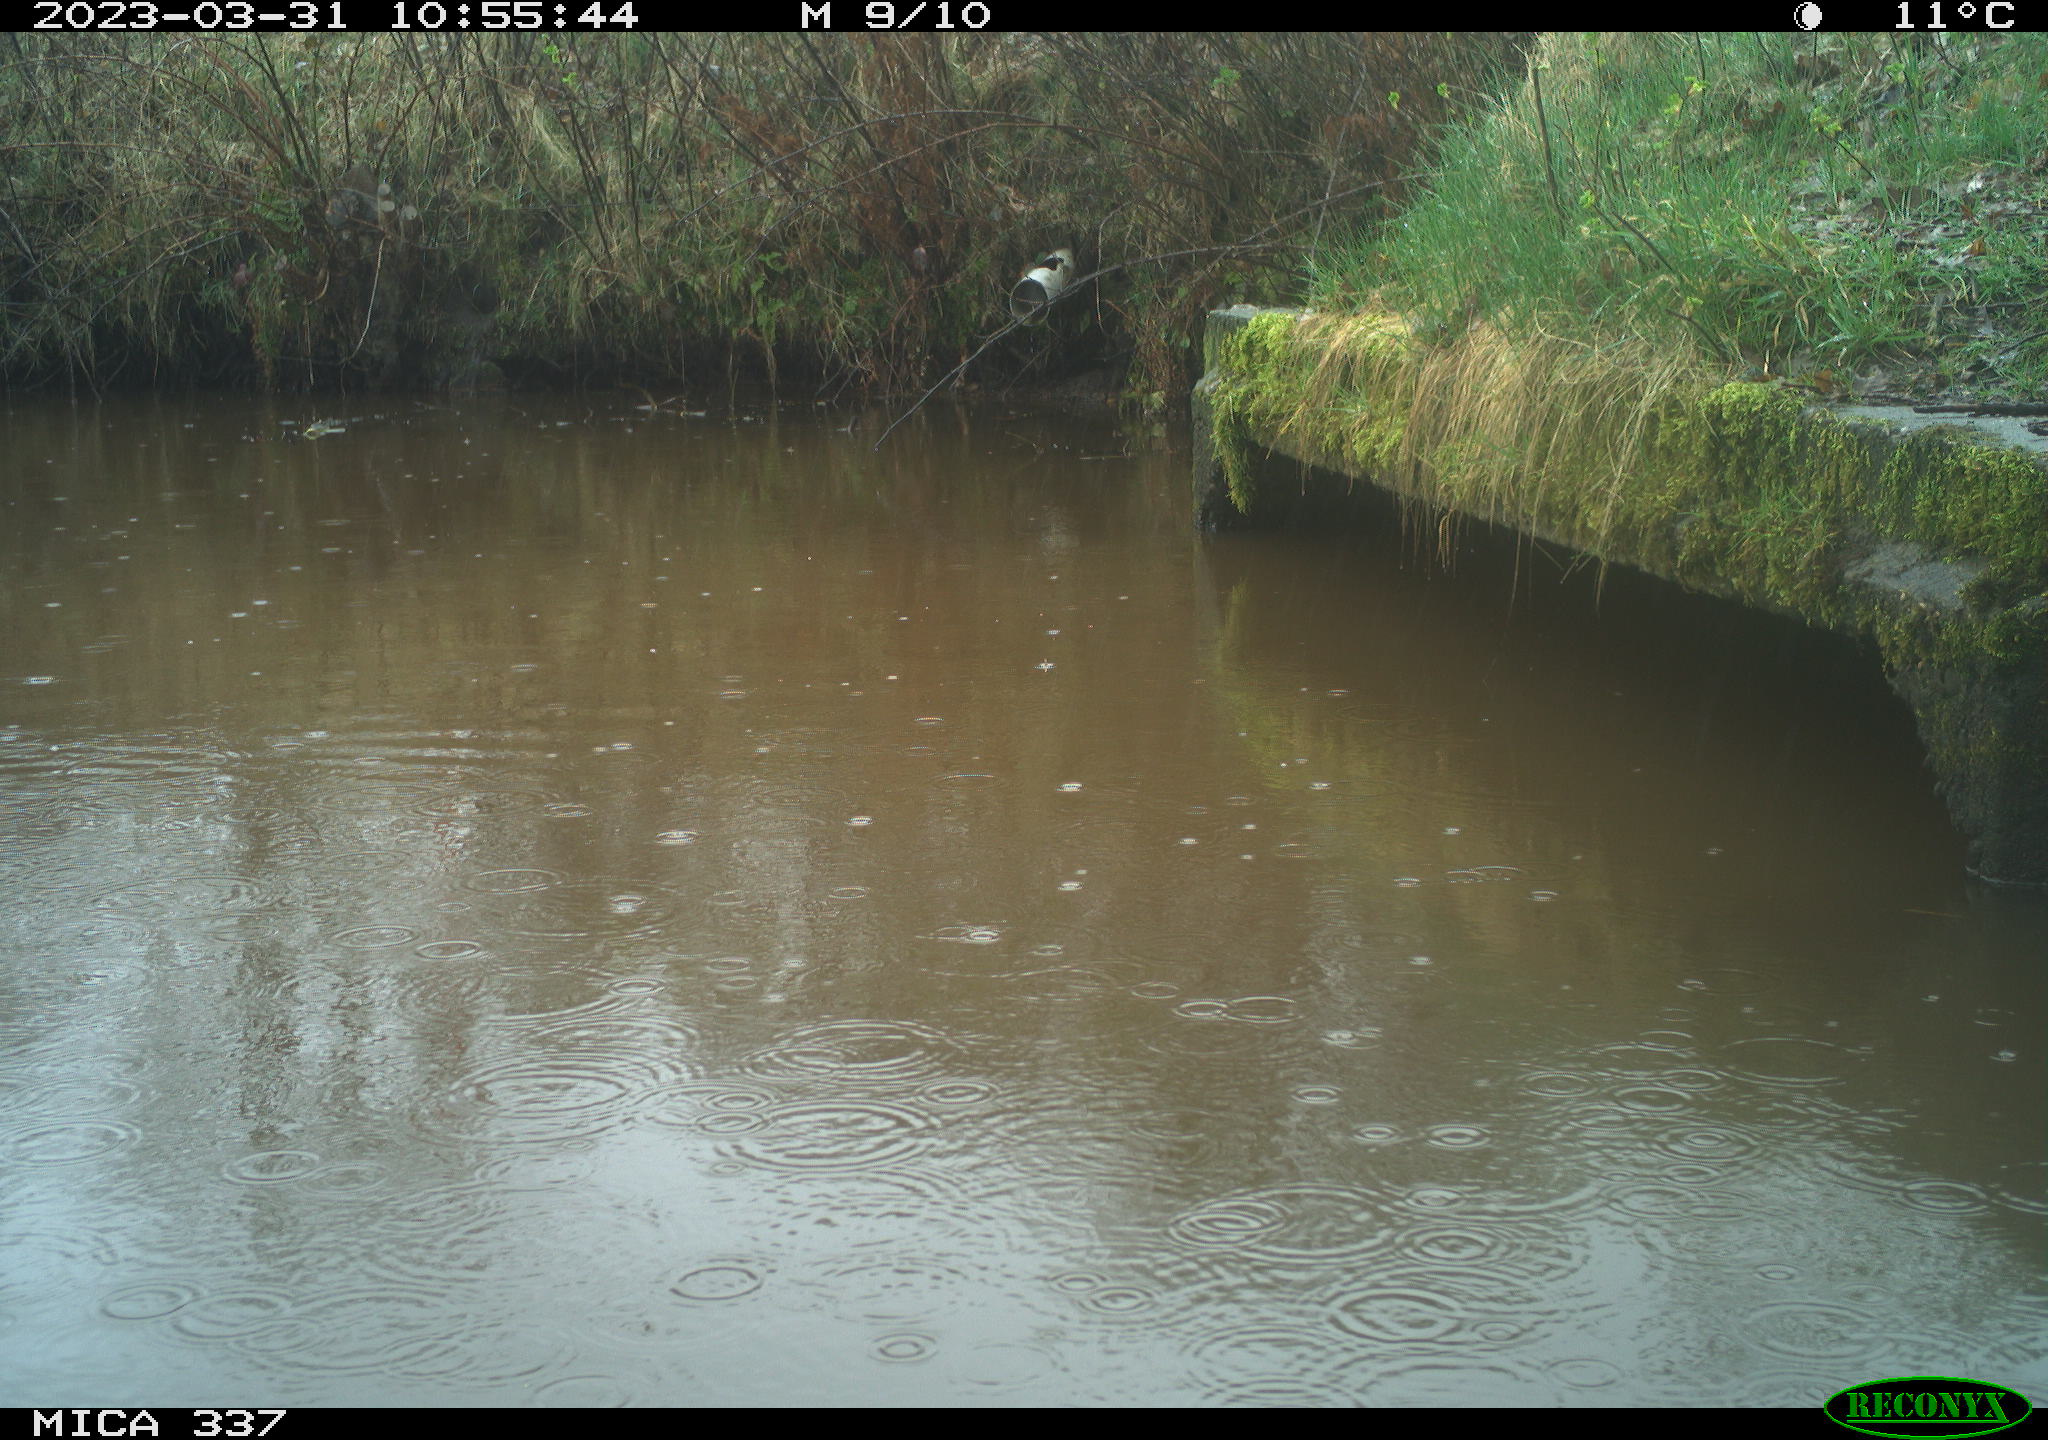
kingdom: Animalia
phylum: Chordata
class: Aves
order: Gruiformes
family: Rallidae
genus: Gallinula
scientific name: Gallinula chloropus
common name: Common moorhen
